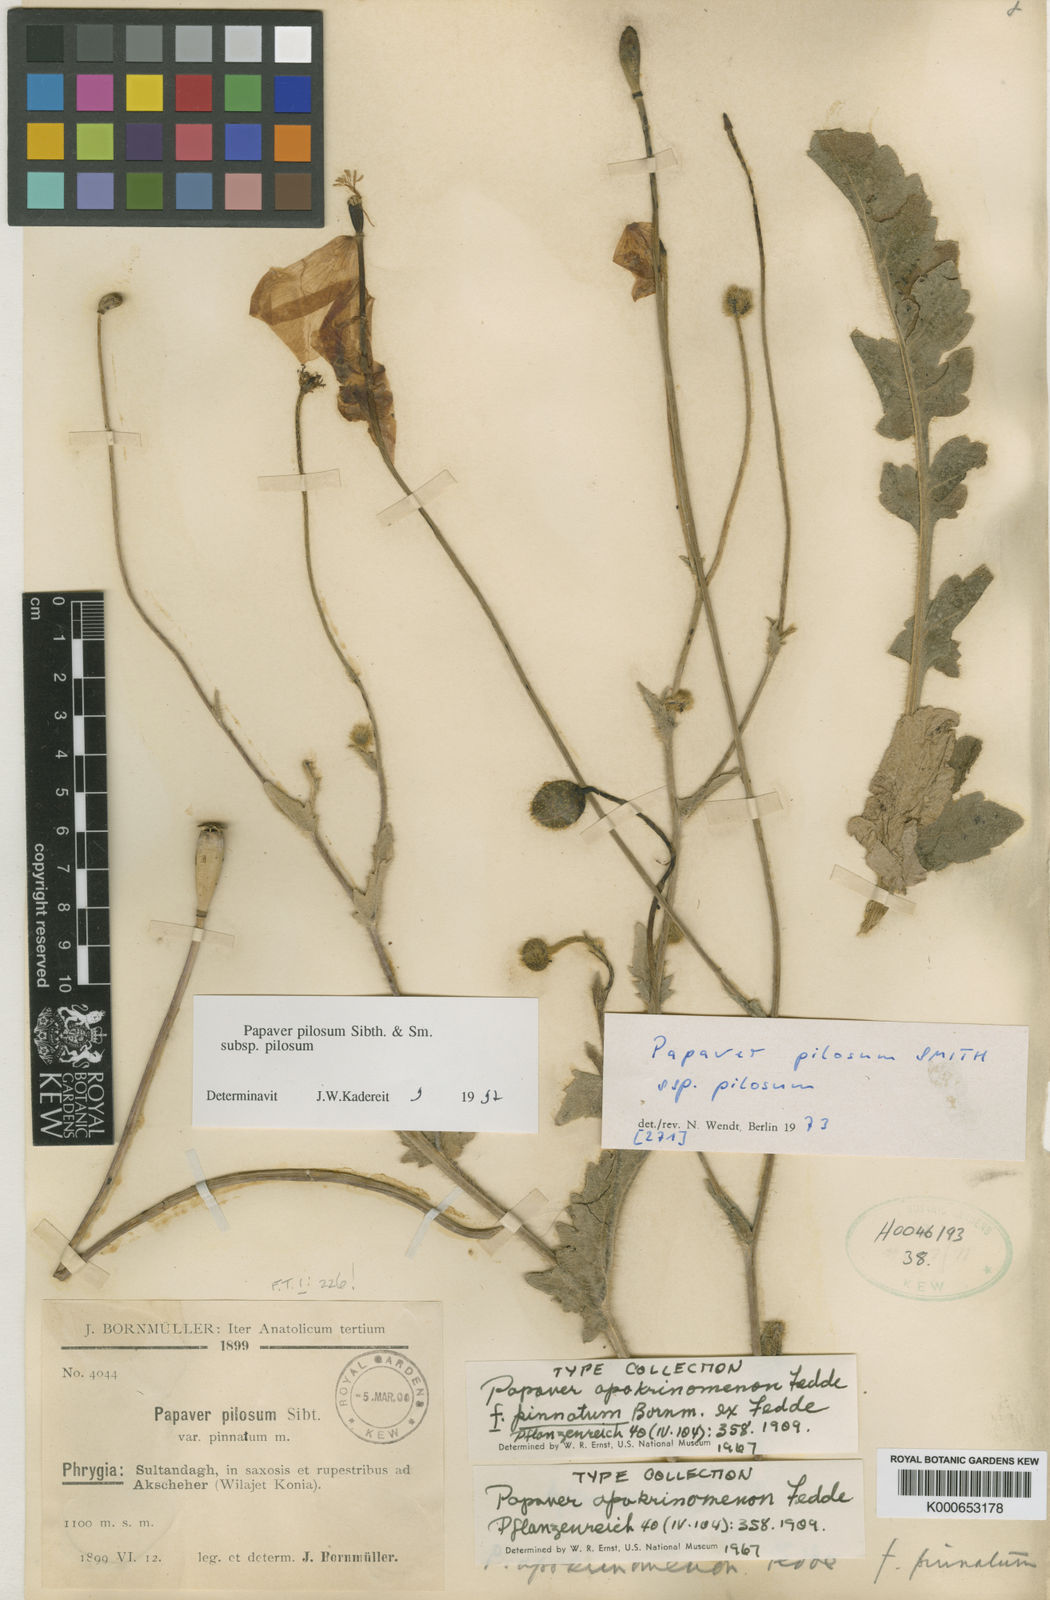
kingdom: Plantae
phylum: Tracheophyta
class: Magnoliopsida
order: Ranunculales
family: Papaveraceae
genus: Papaver
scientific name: Papaver pilosum
